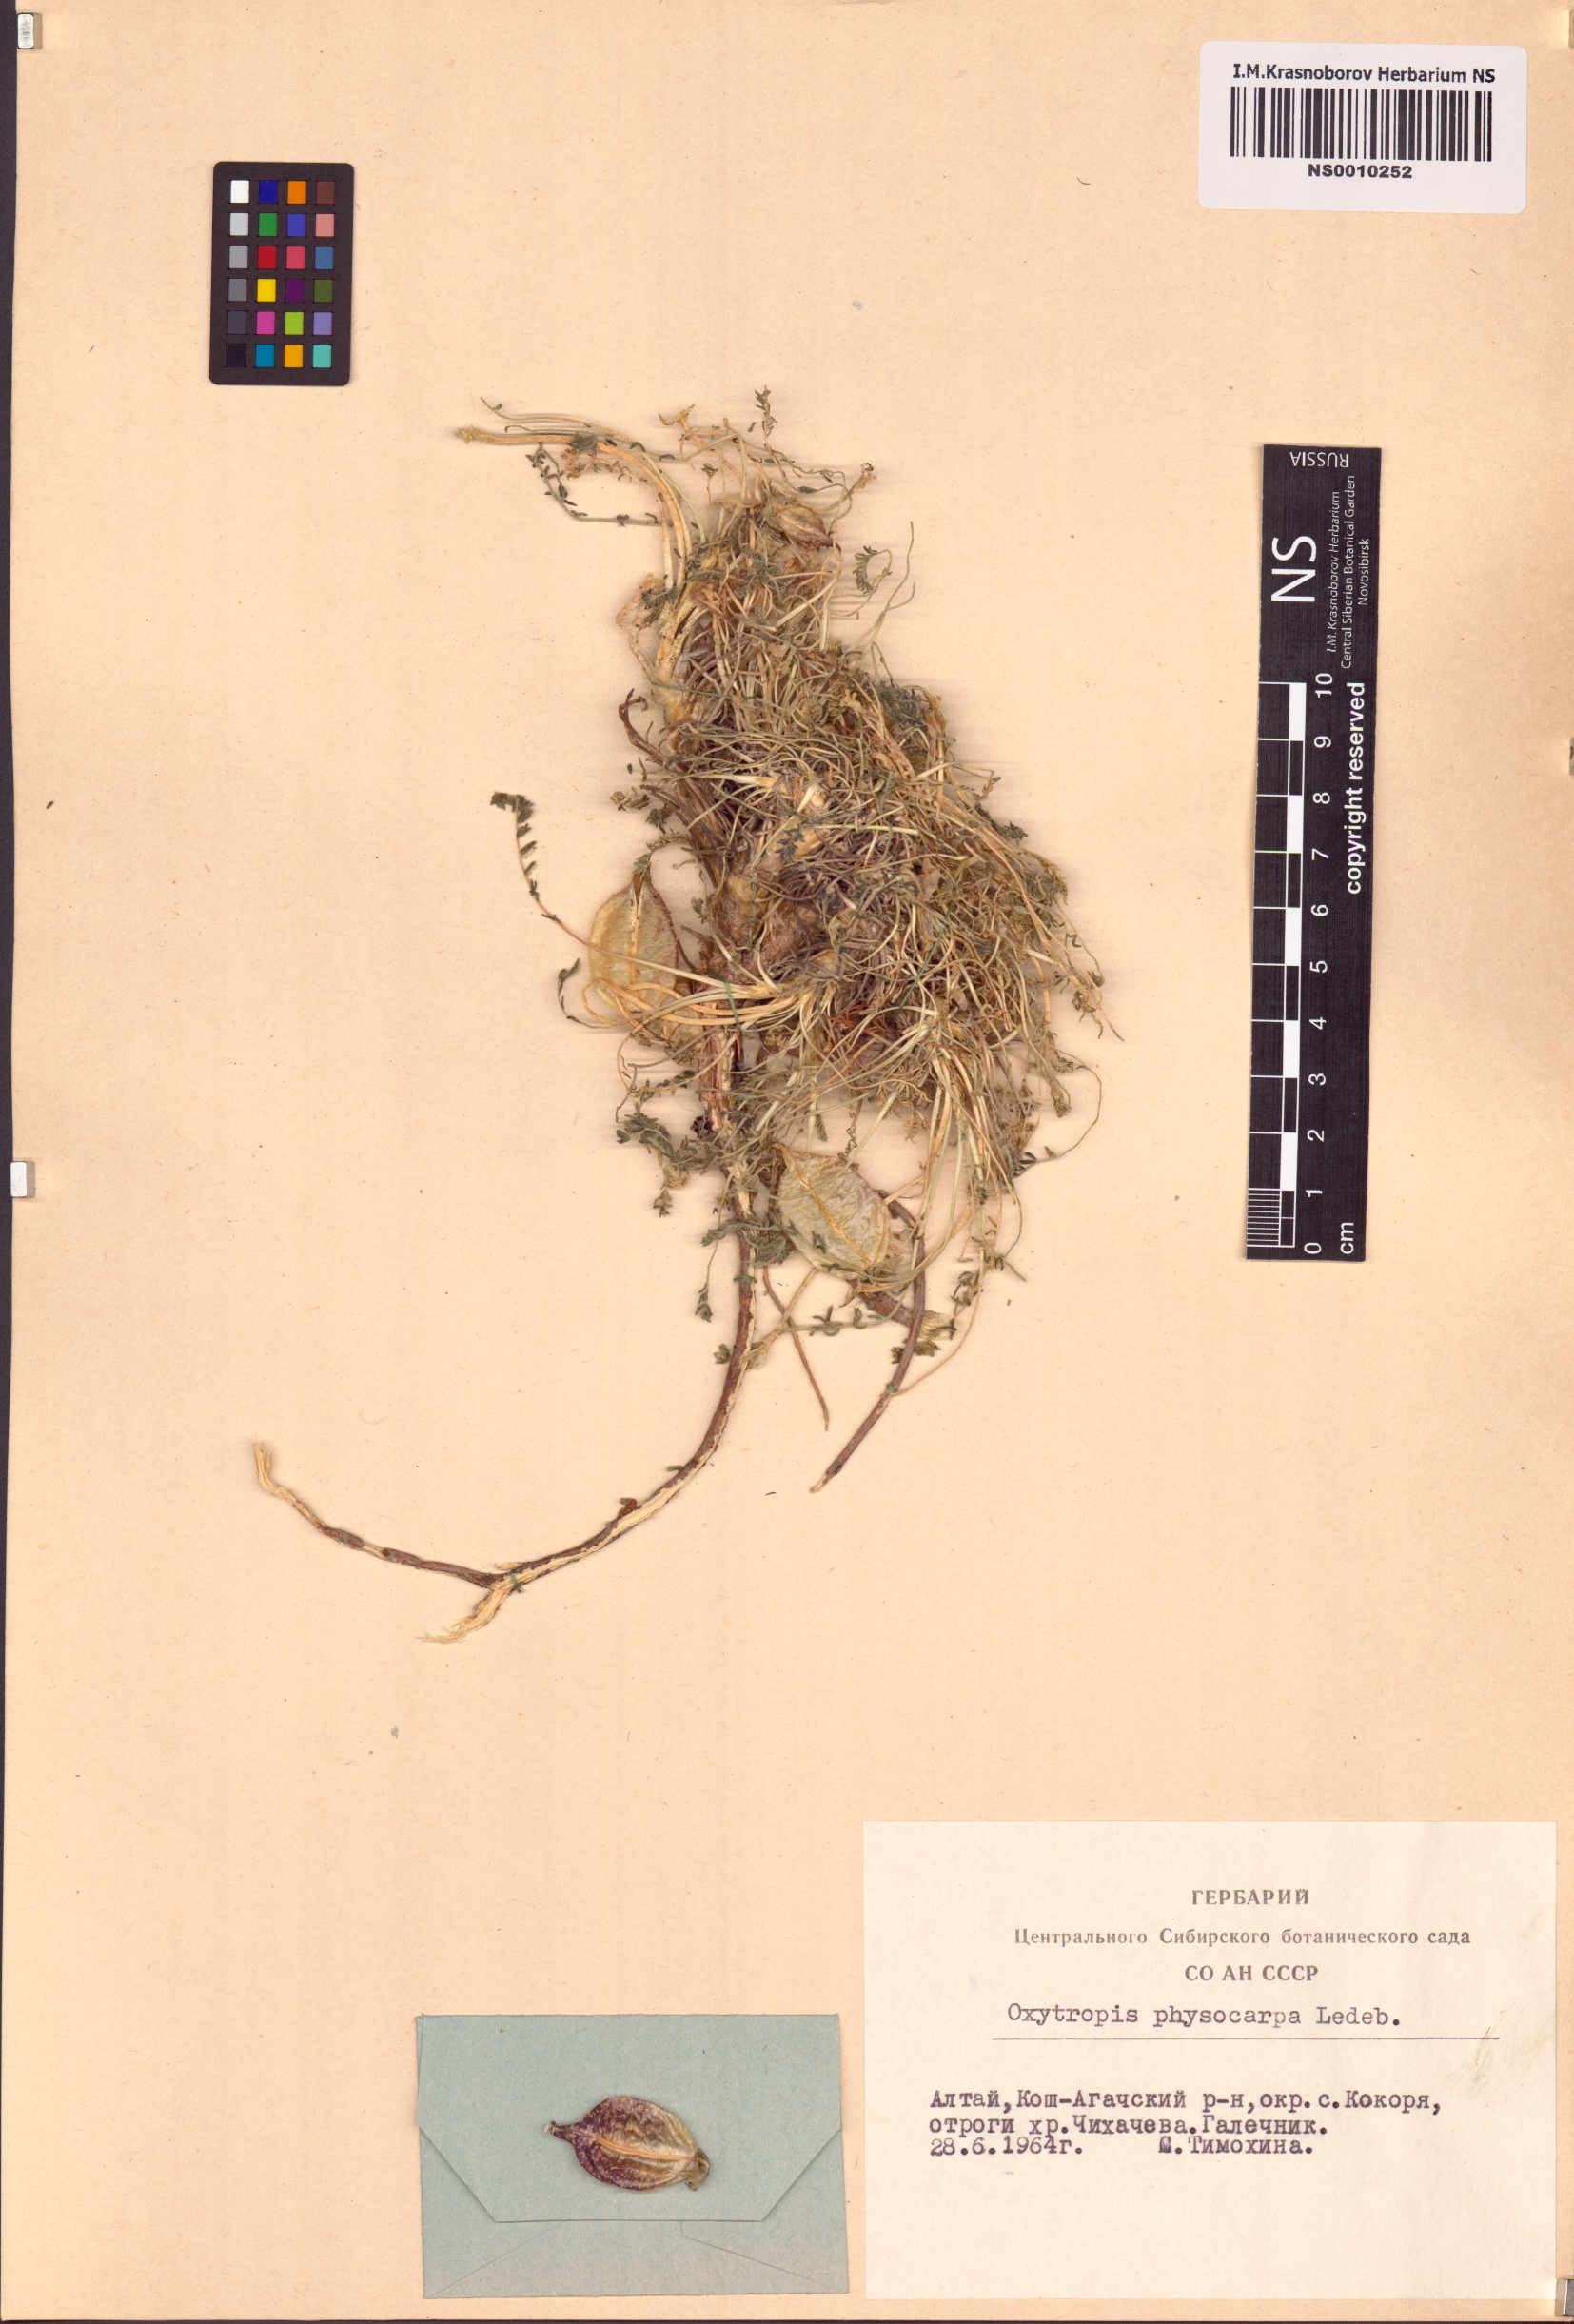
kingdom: Plantae
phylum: Tracheophyta
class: Magnoliopsida
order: Fabales
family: Fabaceae
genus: Oxytropis
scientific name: Oxytropis physocarpa
